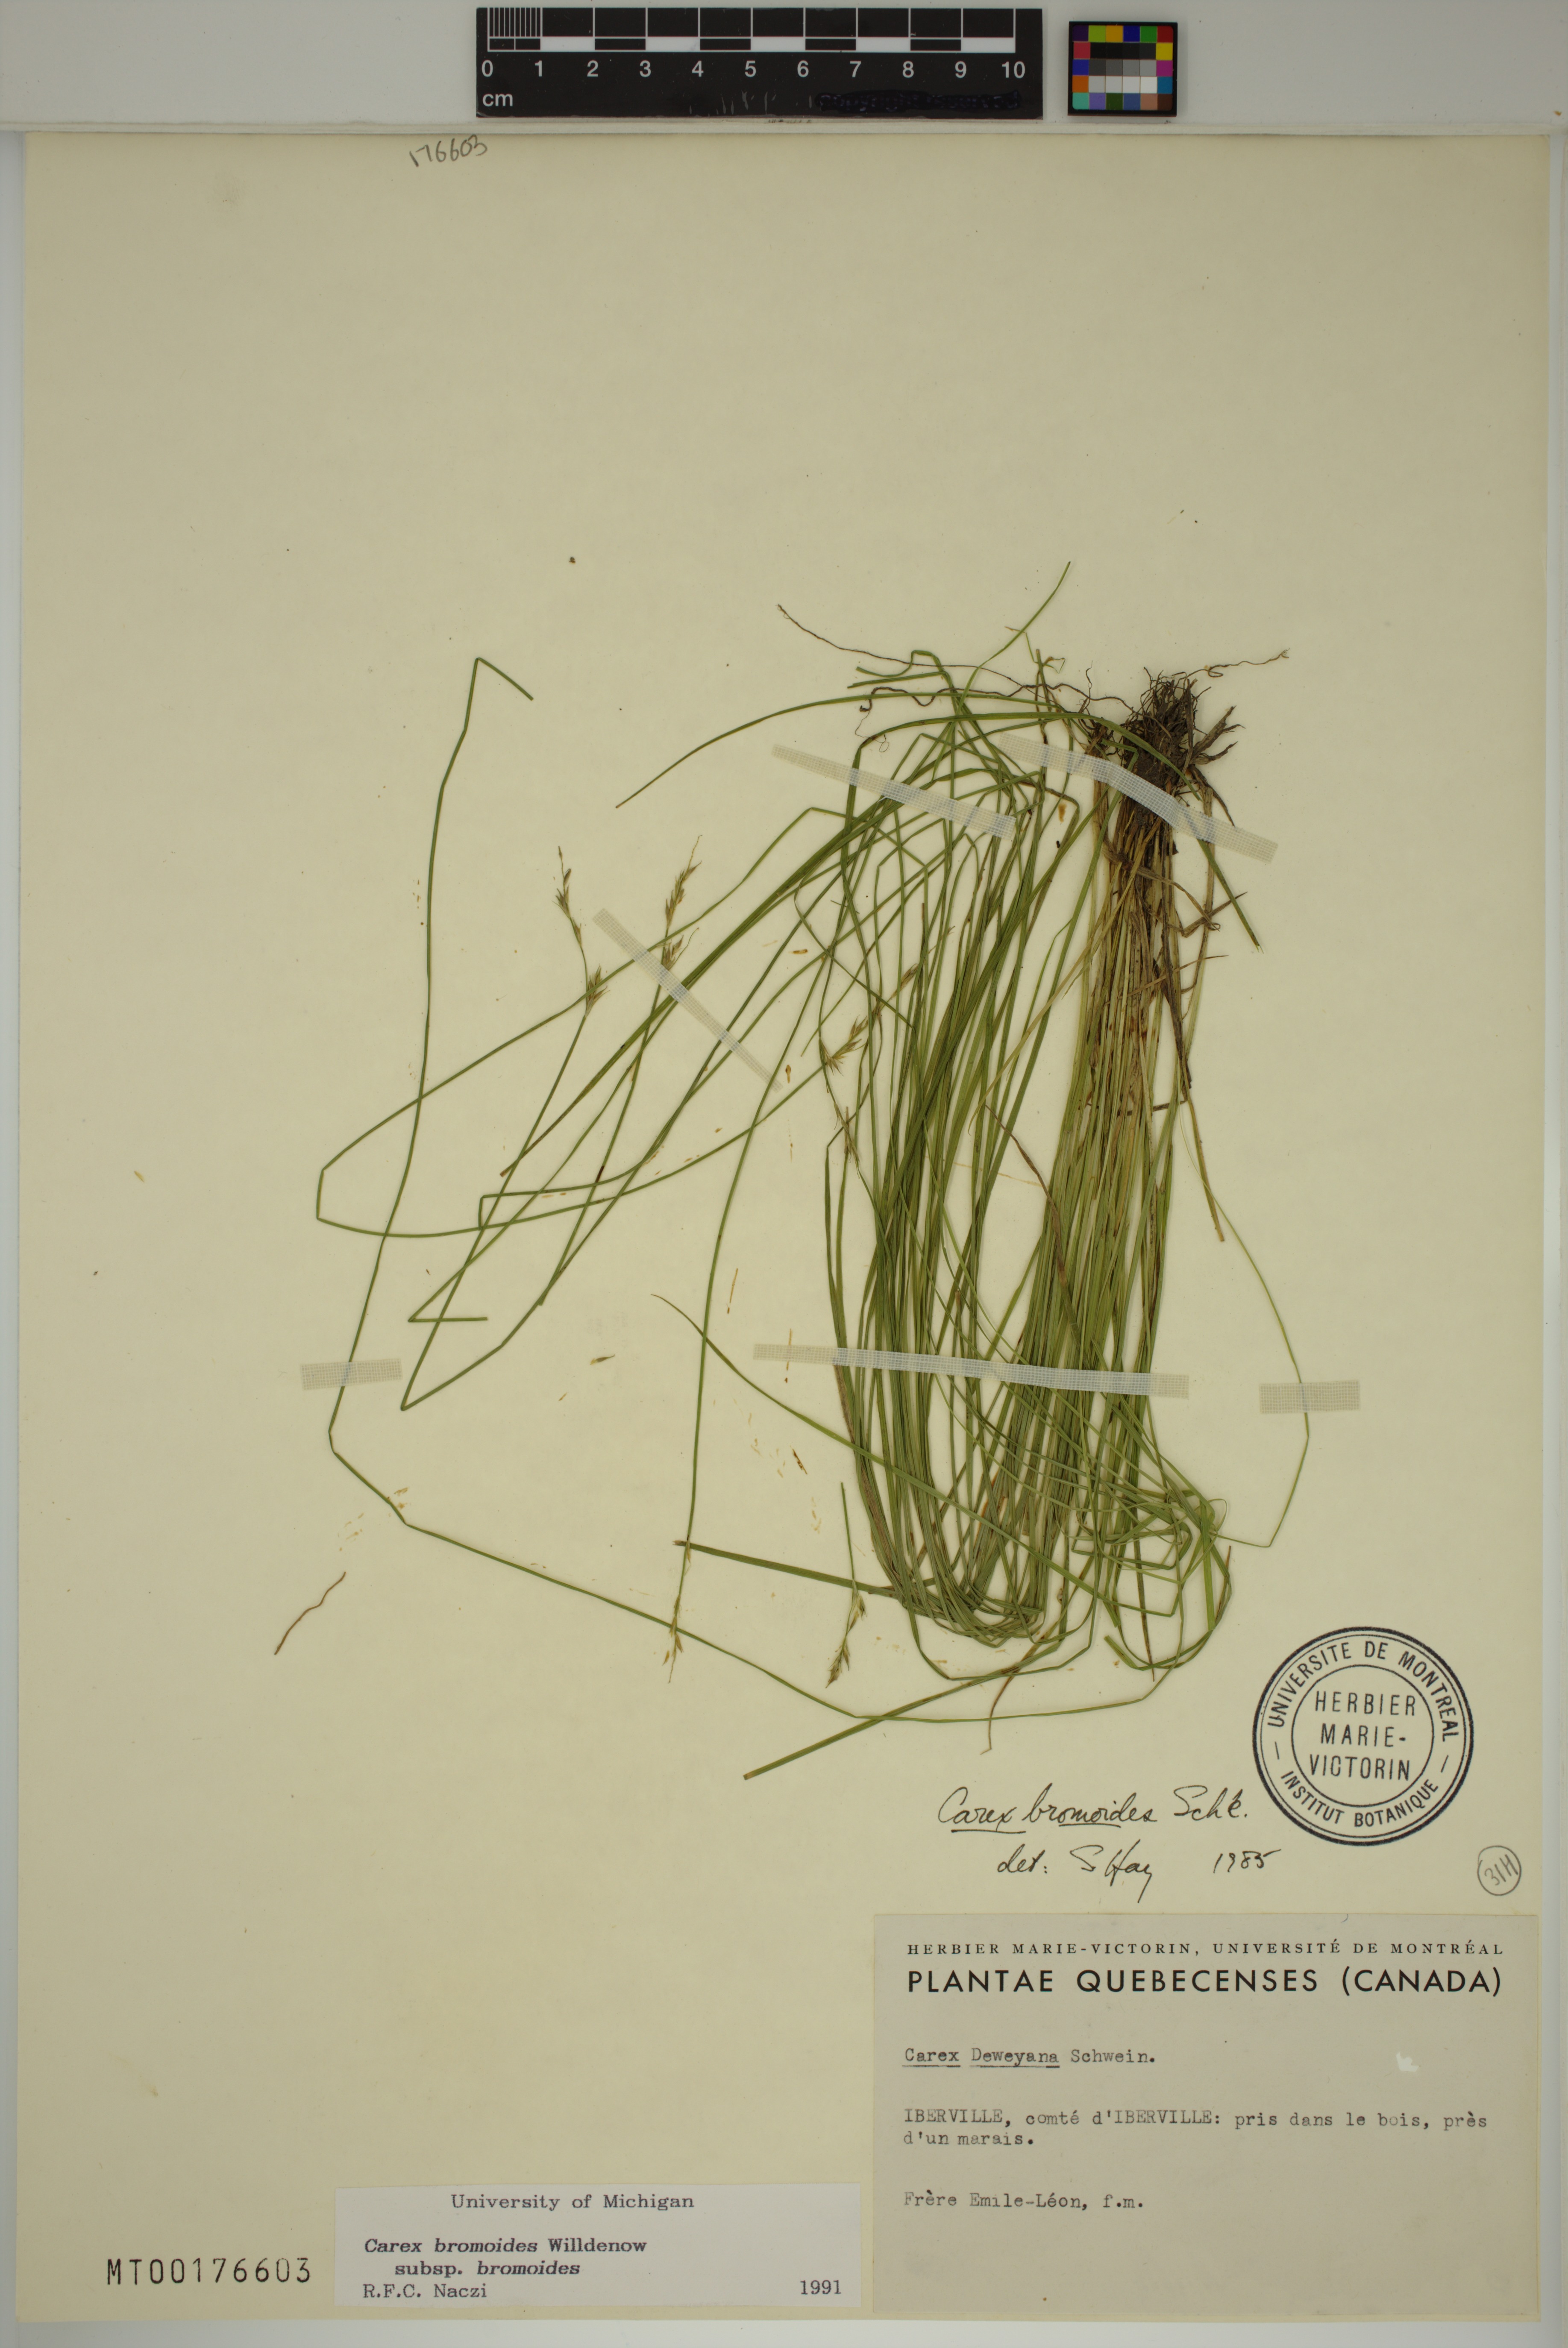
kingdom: Plantae
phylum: Tracheophyta
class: Liliopsida
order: Poales
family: Cyperaceae
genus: Carex
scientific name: Carex bromoides
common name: Brome hummock sedge
